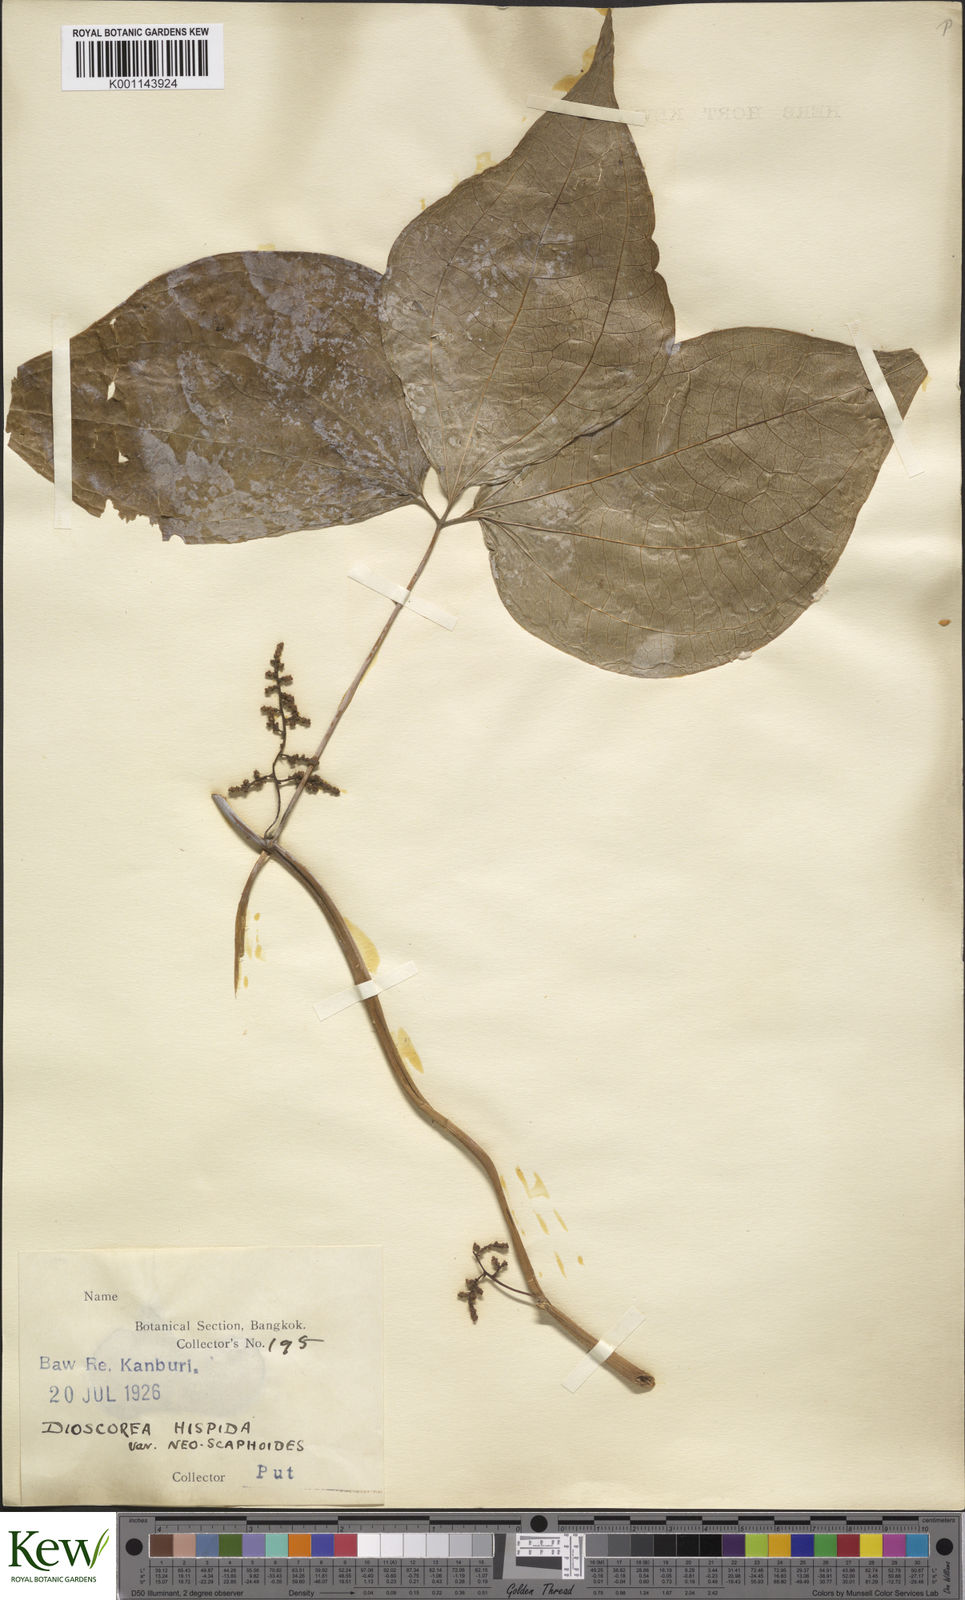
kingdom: Plantae
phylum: Tracheophyta
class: Liliopsida
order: Dioscoreales
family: Dioscoreaceae
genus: Dioscorea
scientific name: Dioscorea hispida
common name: Asiatic bitter yam
